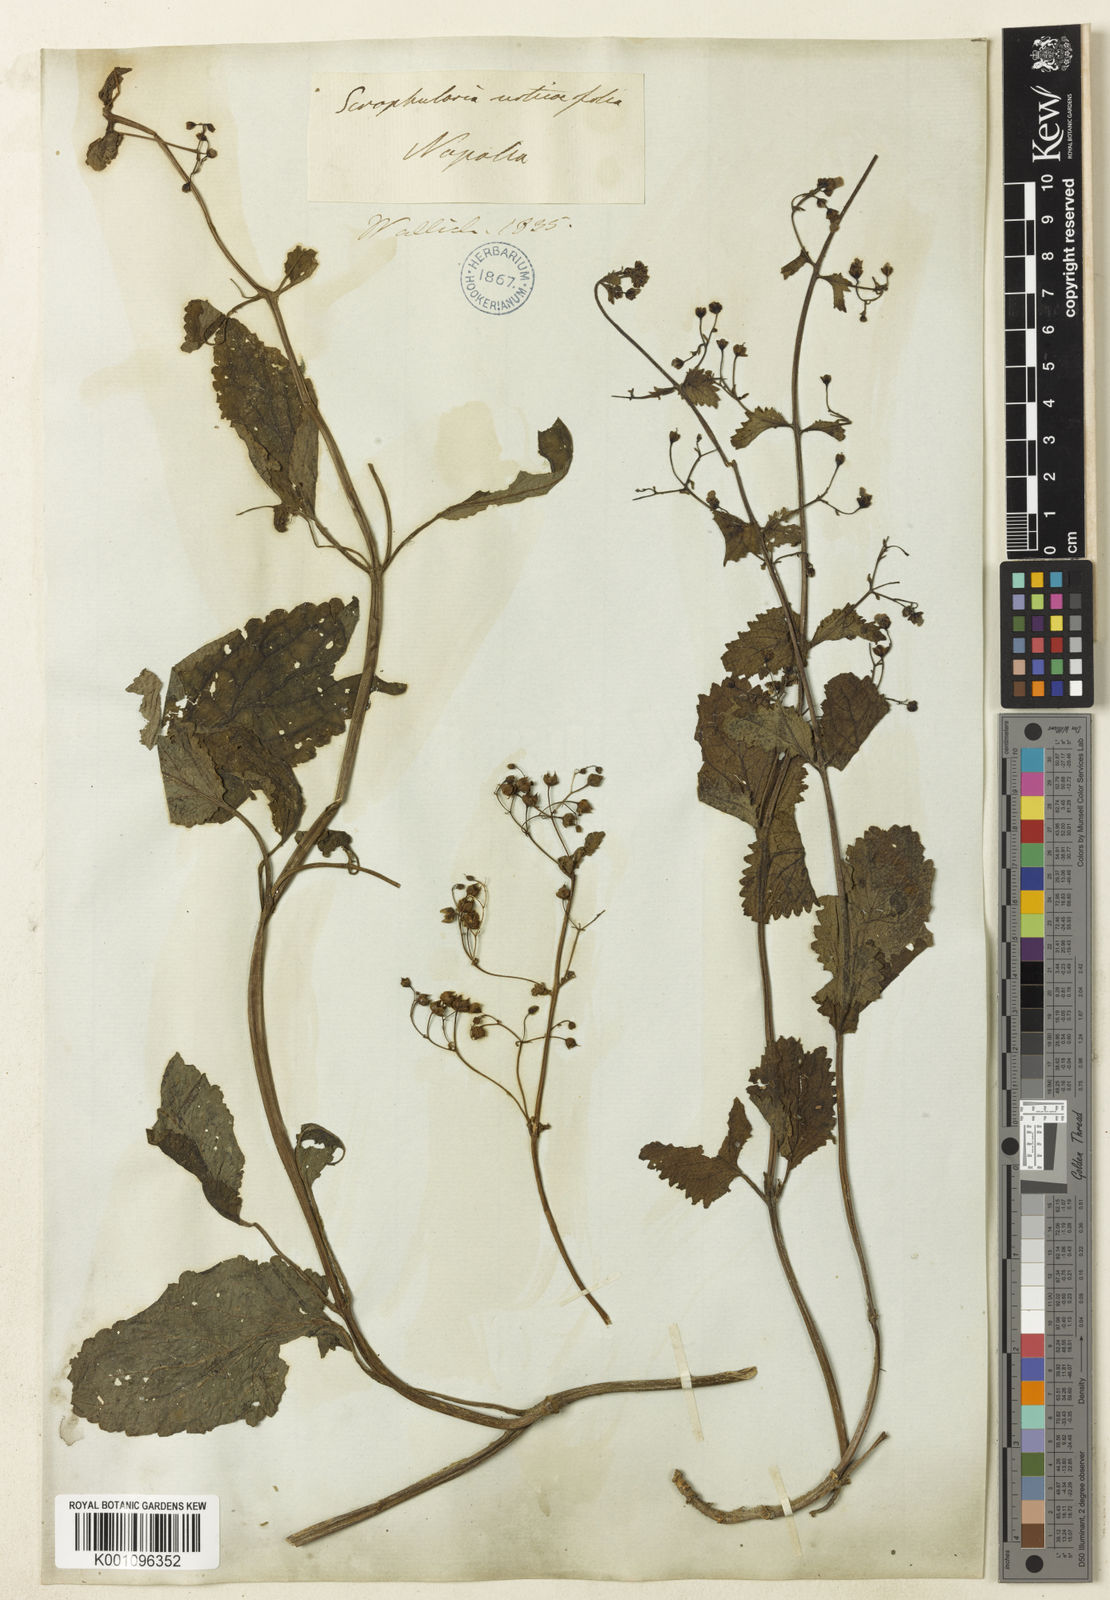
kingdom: Plantae
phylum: Tracheophyta
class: Magnoliopsida
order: Lamiales
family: Scrophulariaceae
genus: Scrophularia
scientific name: Scrophularia
